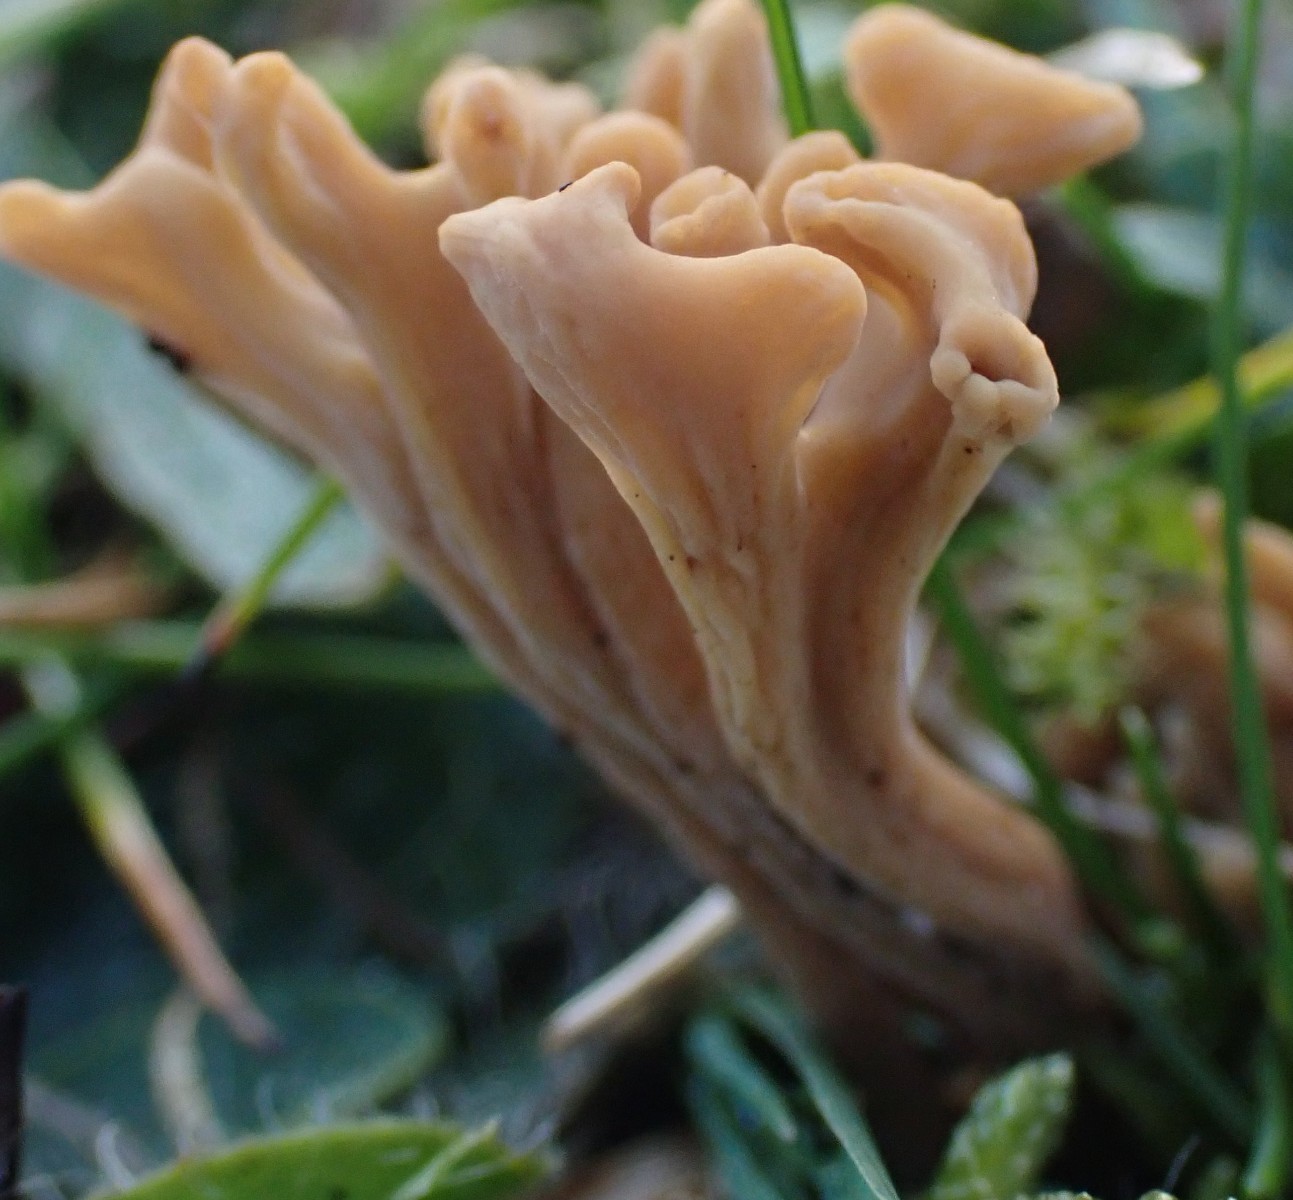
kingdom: Fungi
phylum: Basidiomycota
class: Agaricomycetes
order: Agaricales
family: Clavariaceae
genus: Clavulinopsis
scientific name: Clavulinopsis umbrinella
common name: gulgrå køllesvamp
